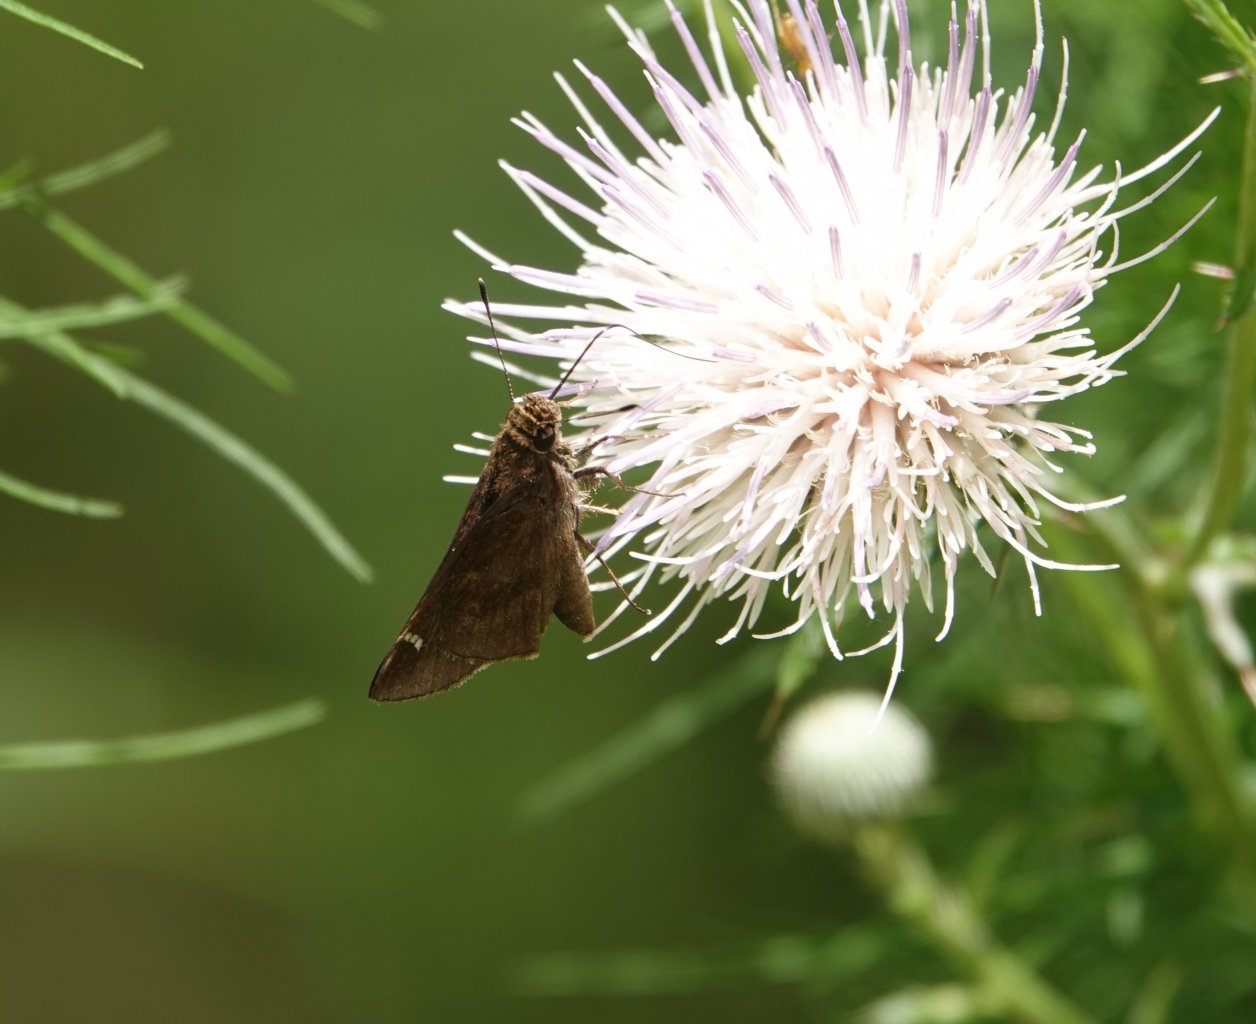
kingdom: Animalia
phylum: Arthropoda
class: Insecta
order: Lepidoptera
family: Hesperiidae
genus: Lerema
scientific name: Lerema accius
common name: Clouded Skipper
